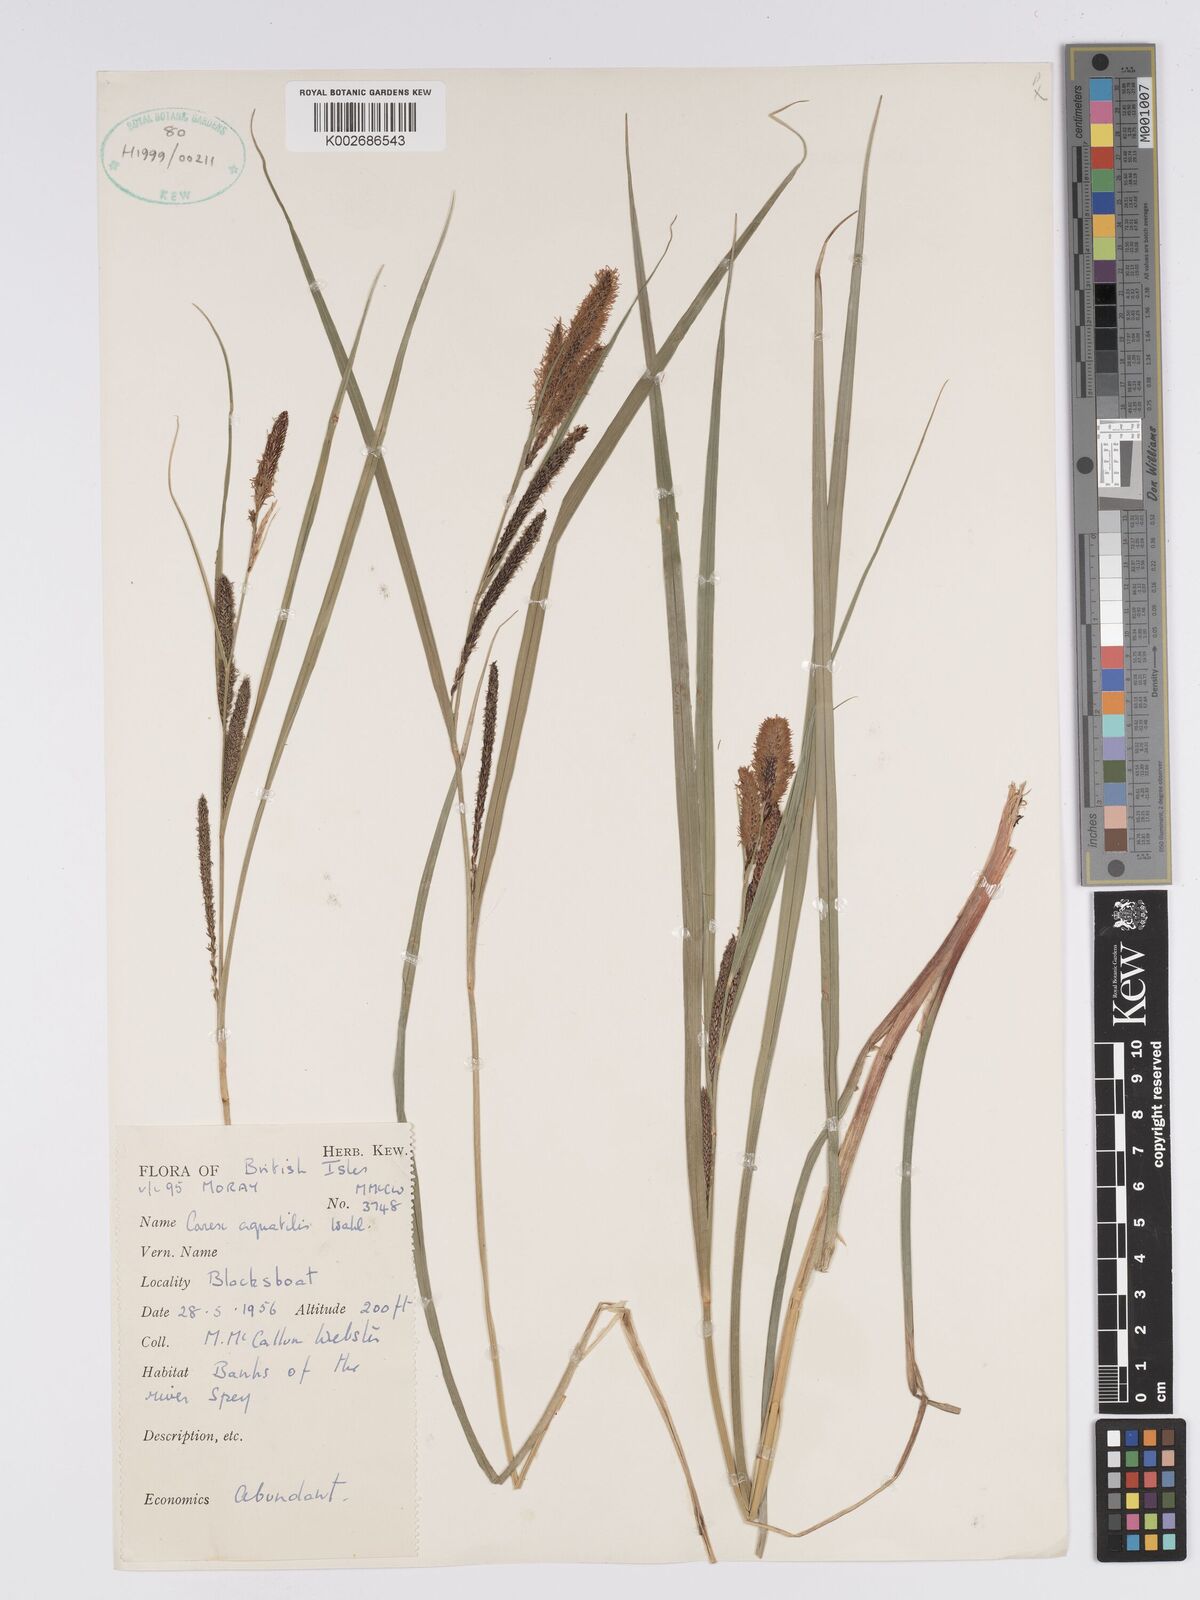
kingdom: Plantae
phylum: Tracheophyta
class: Liliopsida
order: Poales
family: Cyperaceae
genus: Carex
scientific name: Carex aquatilis
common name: Water sedge
